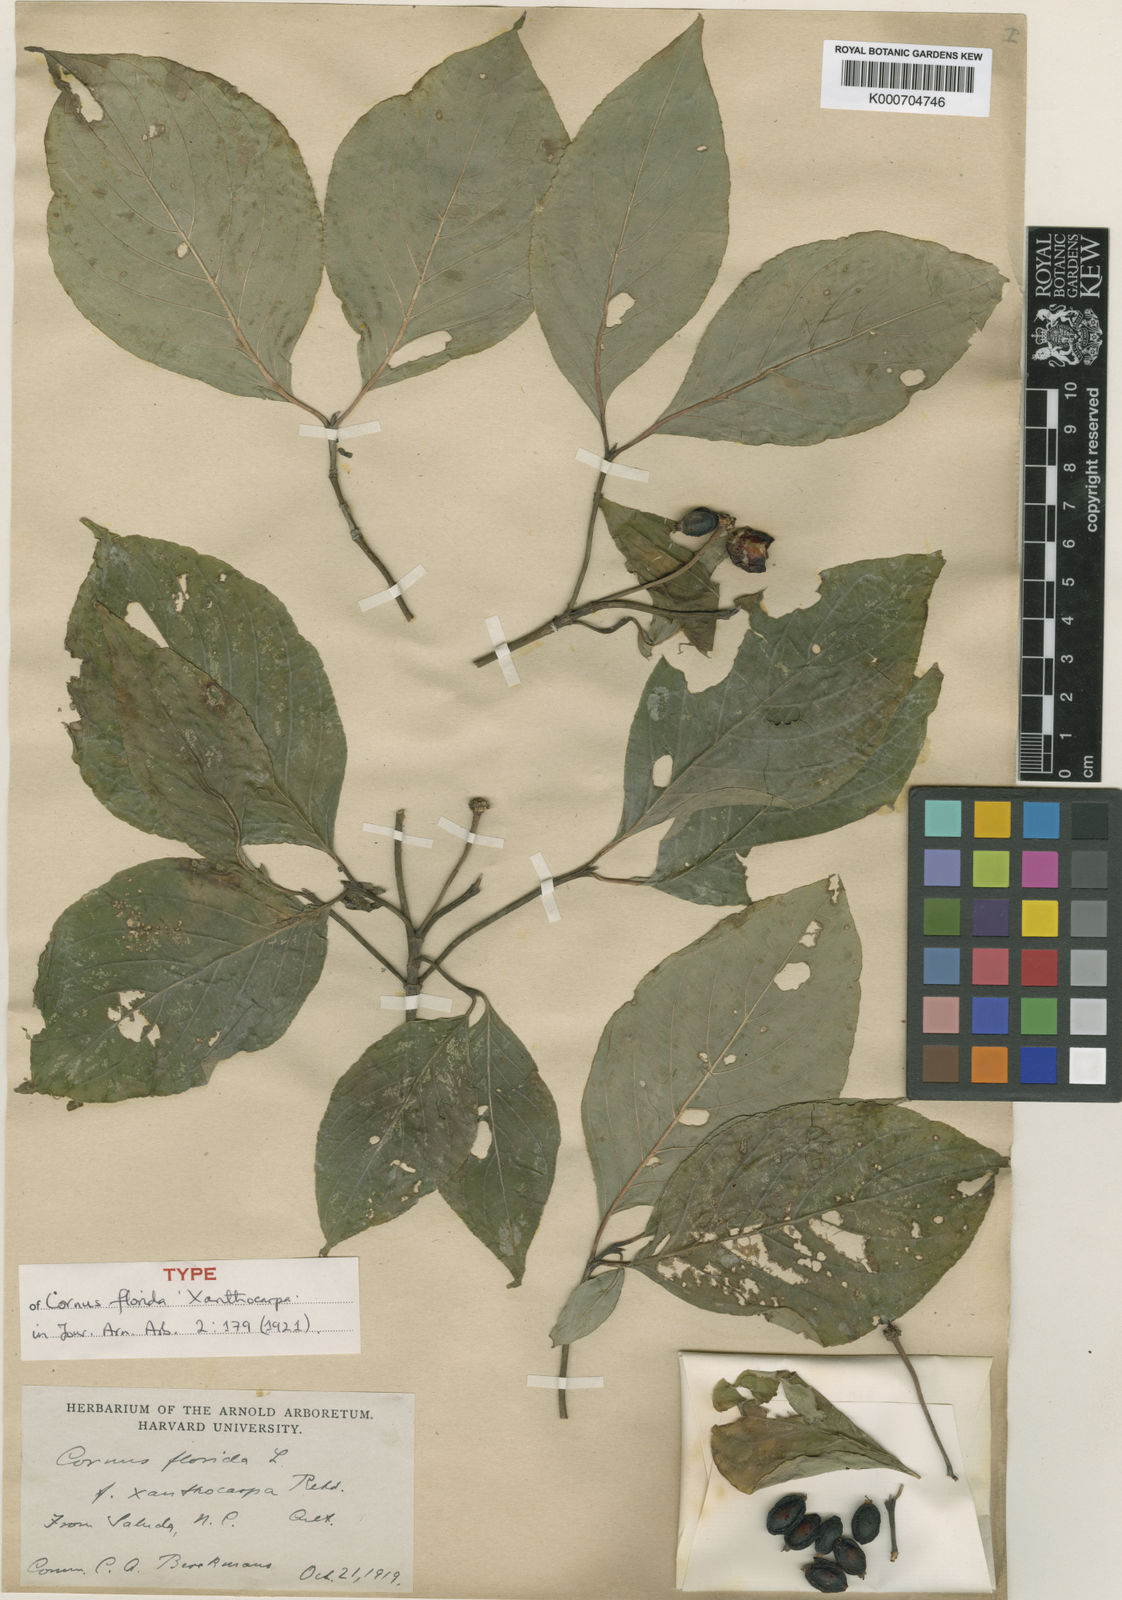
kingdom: Plantae
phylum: Tracheophyta
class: Magnoliopsida
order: Cornales
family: Cornaceae
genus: Cornus
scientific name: Cornus florida
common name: Flowering dogwood
